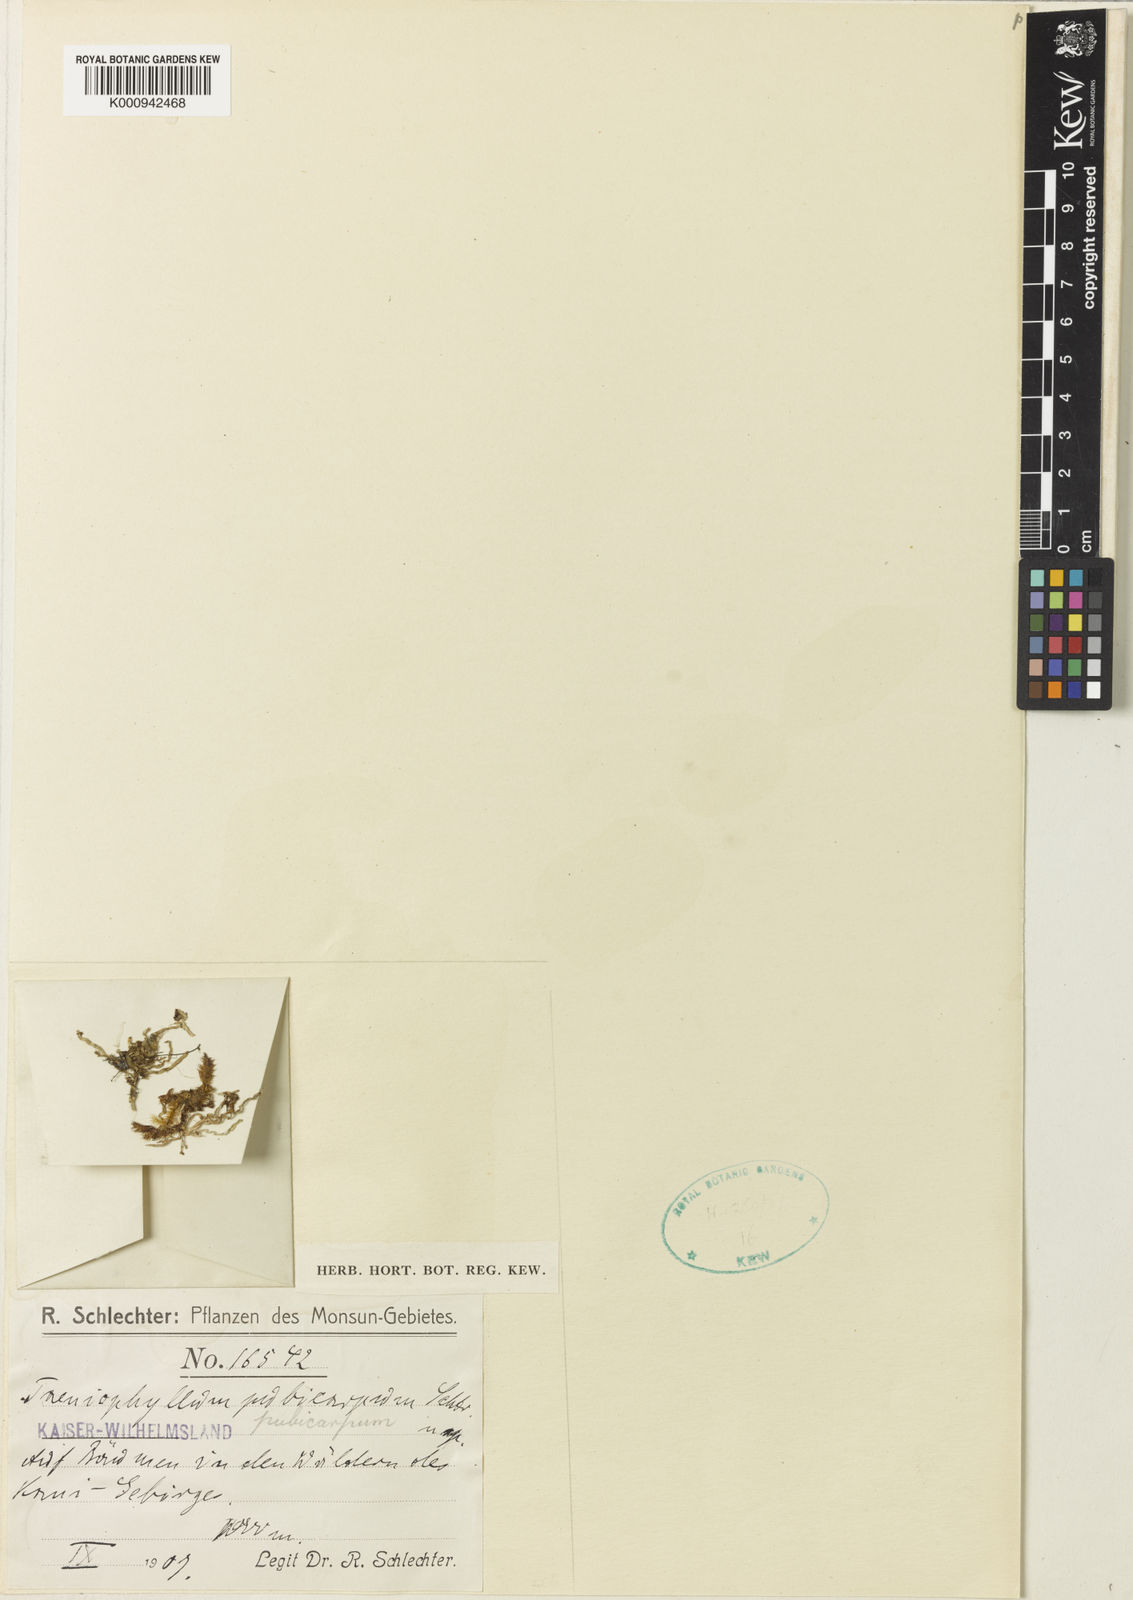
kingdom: Plantae
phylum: Tracheophyta
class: Liliopsida
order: Asparagales
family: Orchidaceae
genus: Taeniophyllum
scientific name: Taeniophyllum pubicarpum
